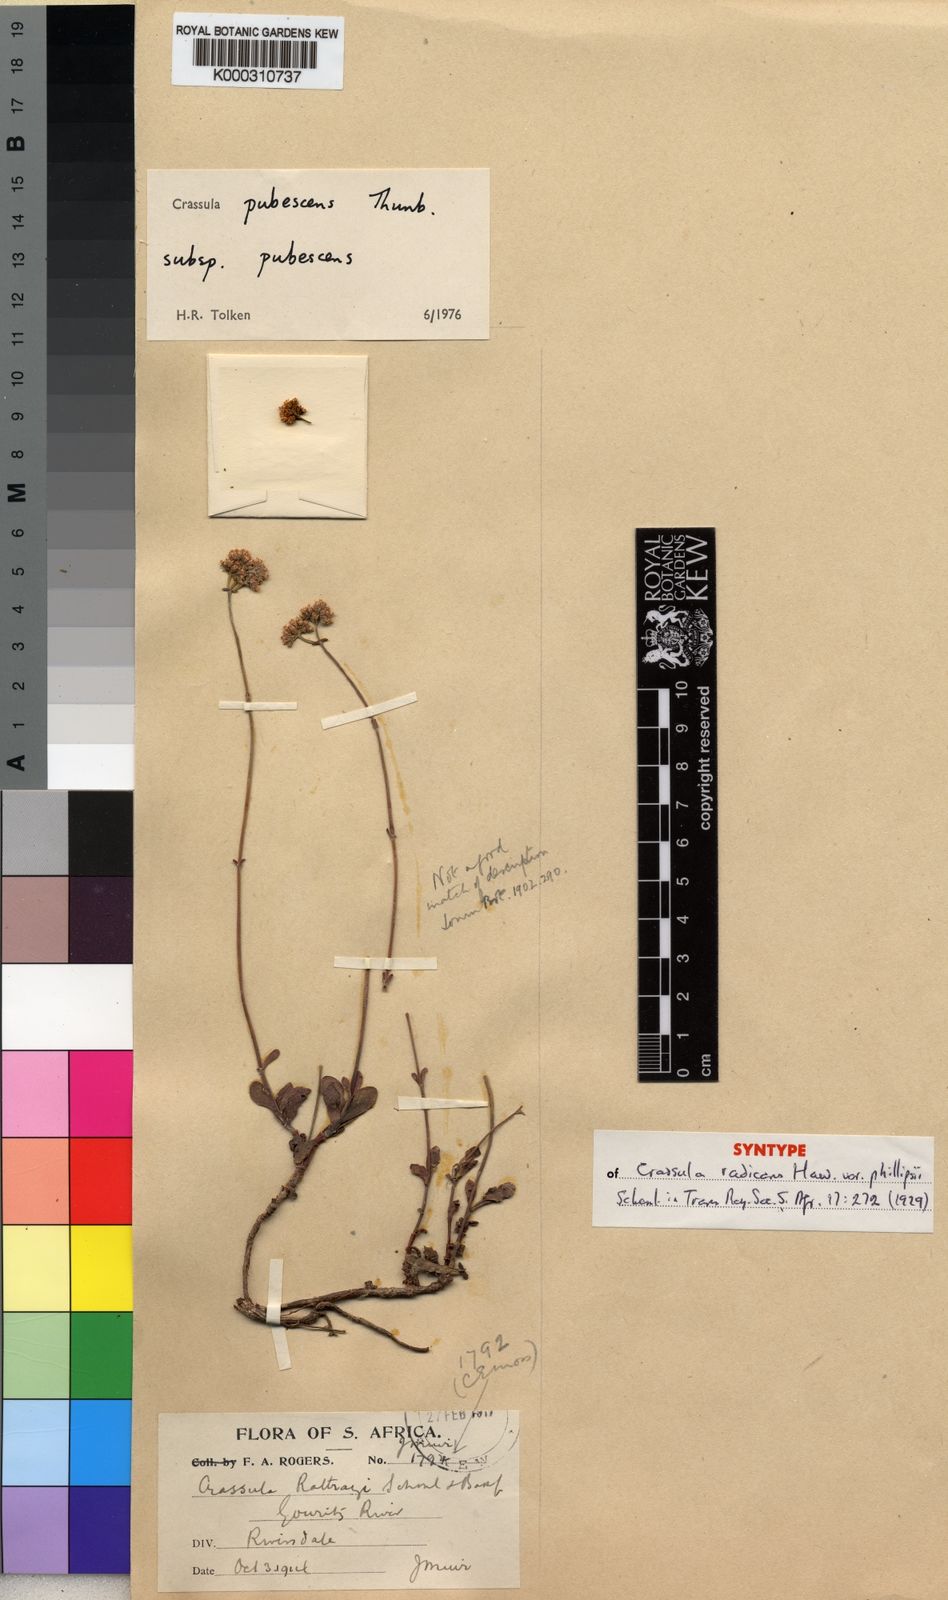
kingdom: Plantae
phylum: Tracheophyta
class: Magnoliopsida
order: Saxifragales
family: Crassulaceae
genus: Crassula
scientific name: Crassula pubescens
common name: Jersey pigmyweed
